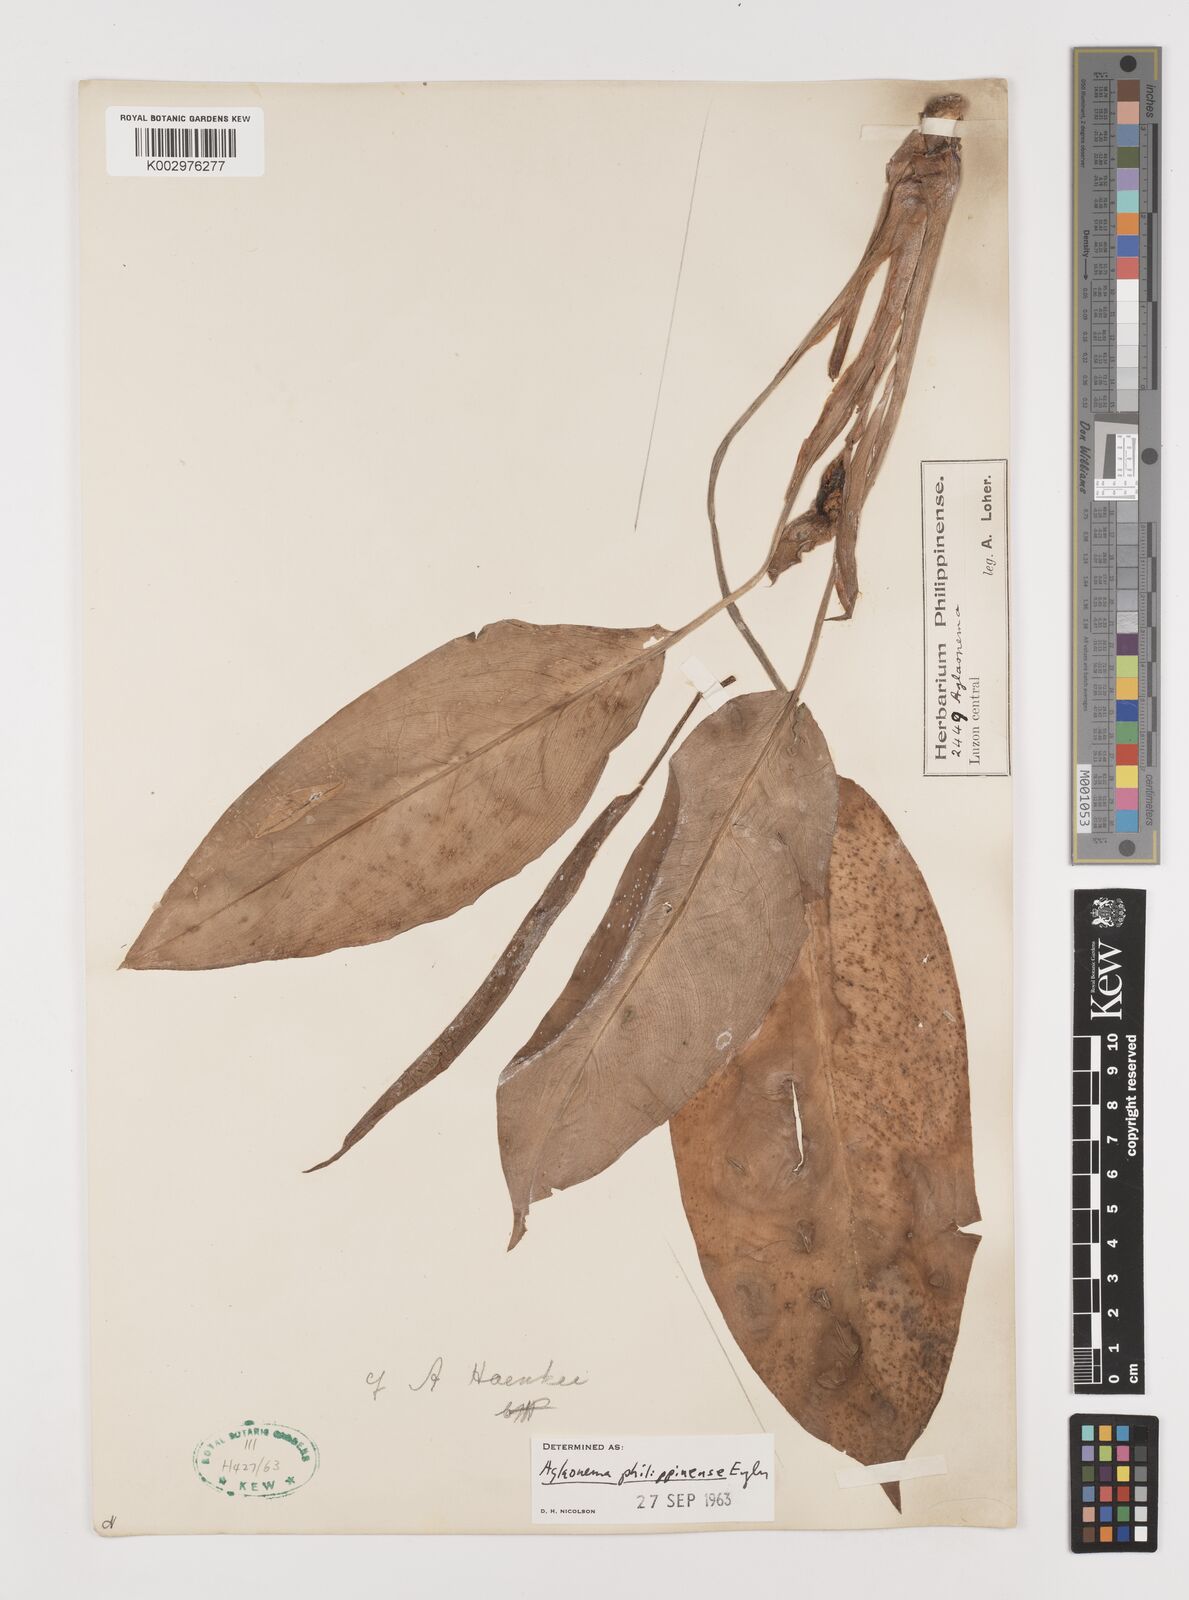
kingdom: Plantae
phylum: Tracheophyta
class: Liliopsida
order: Alismatales
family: Araceae
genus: Aglaonema
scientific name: Aglaonema philippinense
